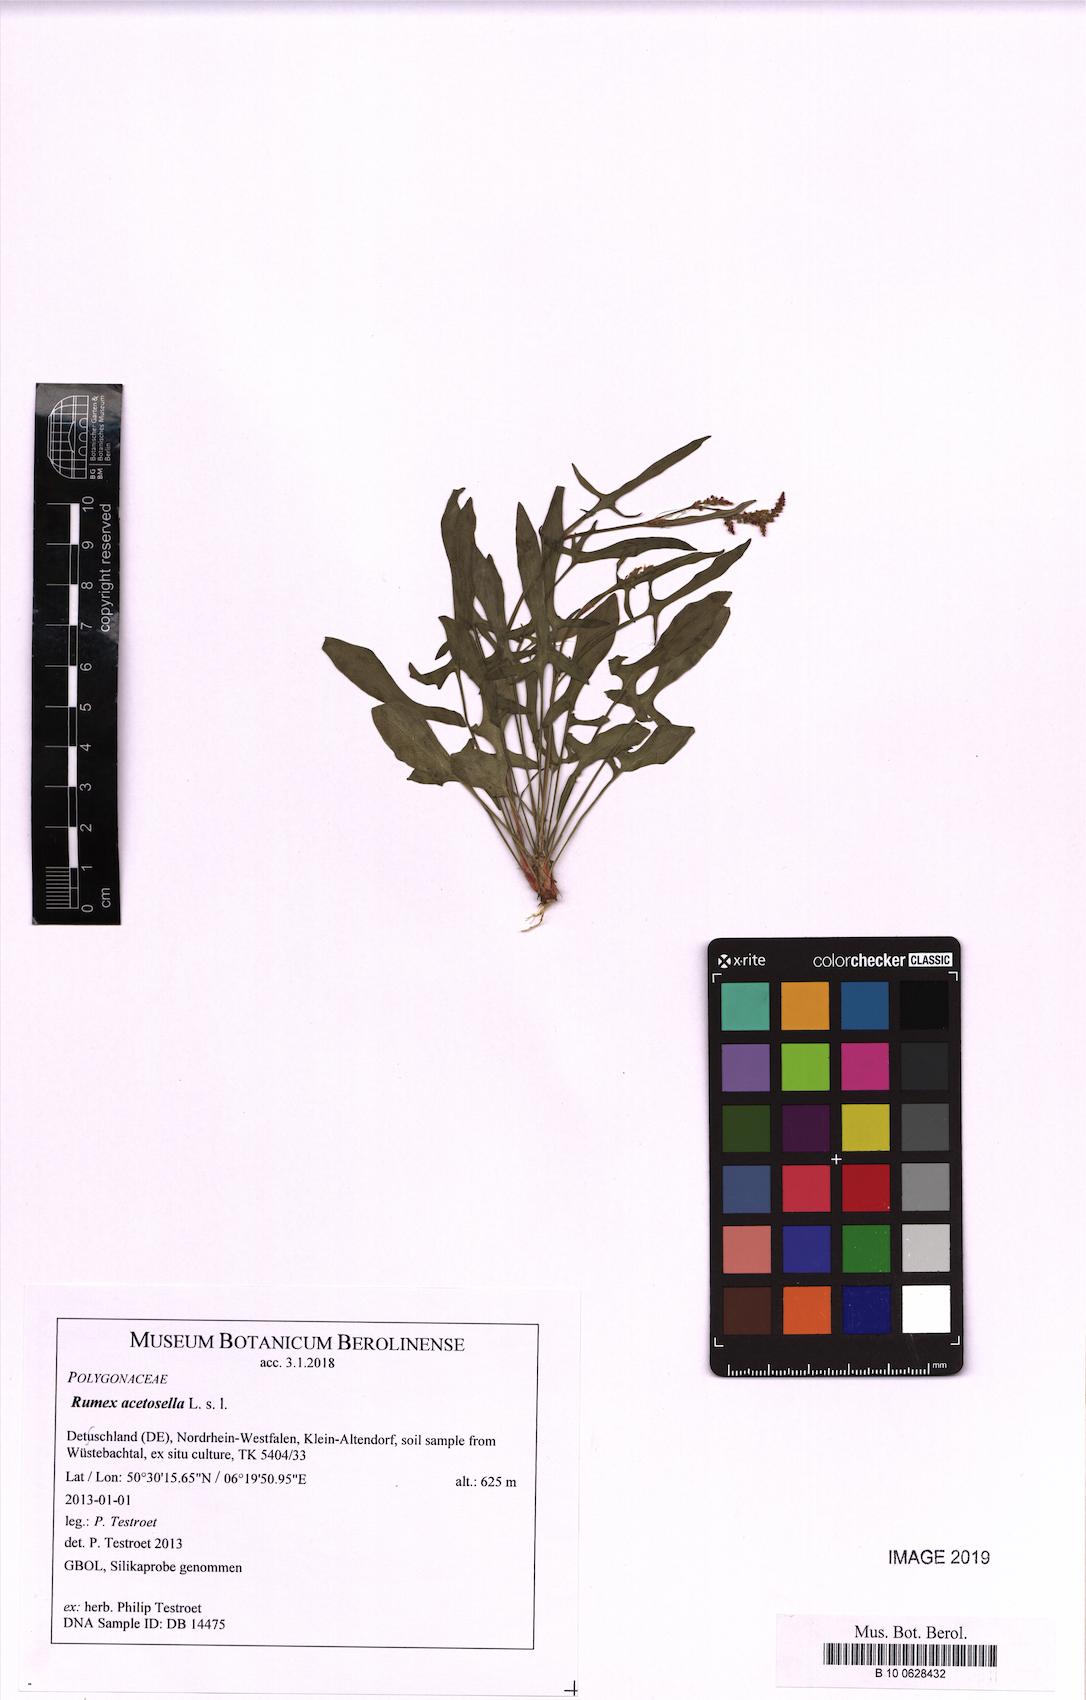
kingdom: Plantae
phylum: Tracheophyta
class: Magnoliopsida
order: Caryophyllales
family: Polygonaceae
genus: Rumex
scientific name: Rumex acetosella
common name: Common sheep sorrel
